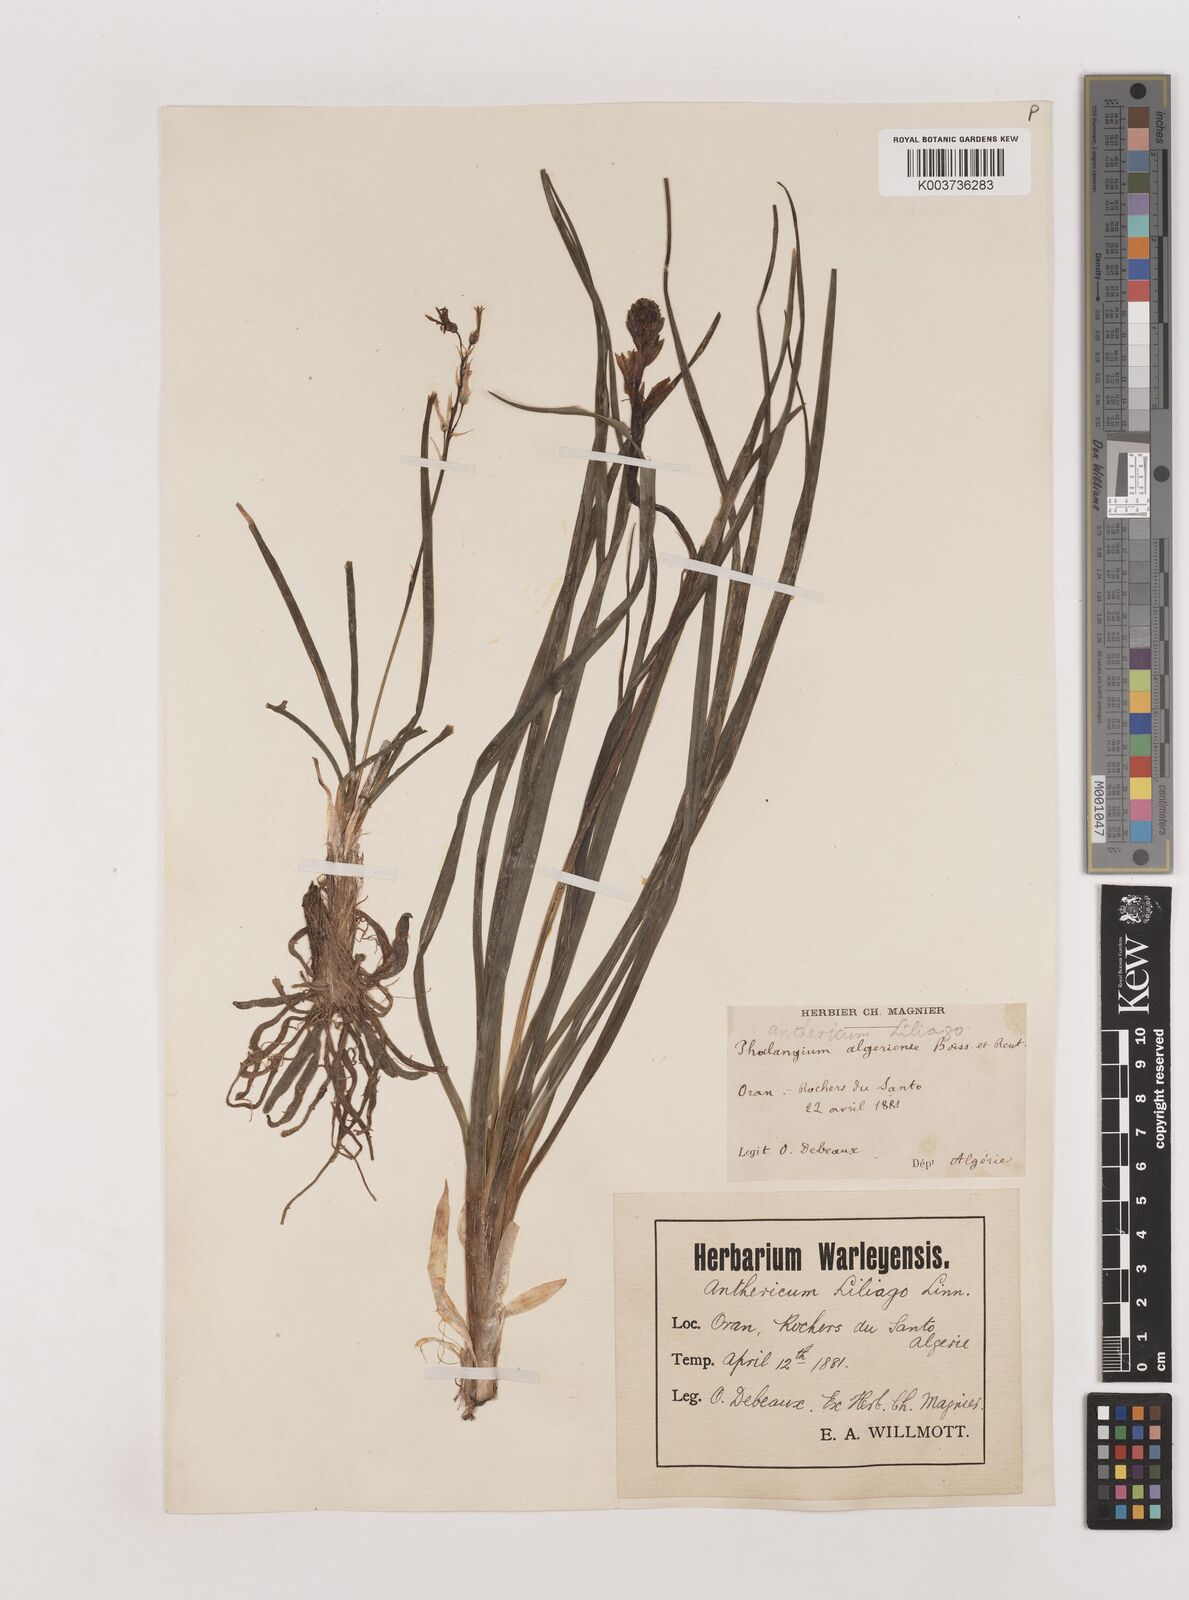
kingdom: Plantae
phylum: Tracheophyta
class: Liliopsida
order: Asparagales
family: Asparagaceae
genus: Anthericum
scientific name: Anthericum liliago
